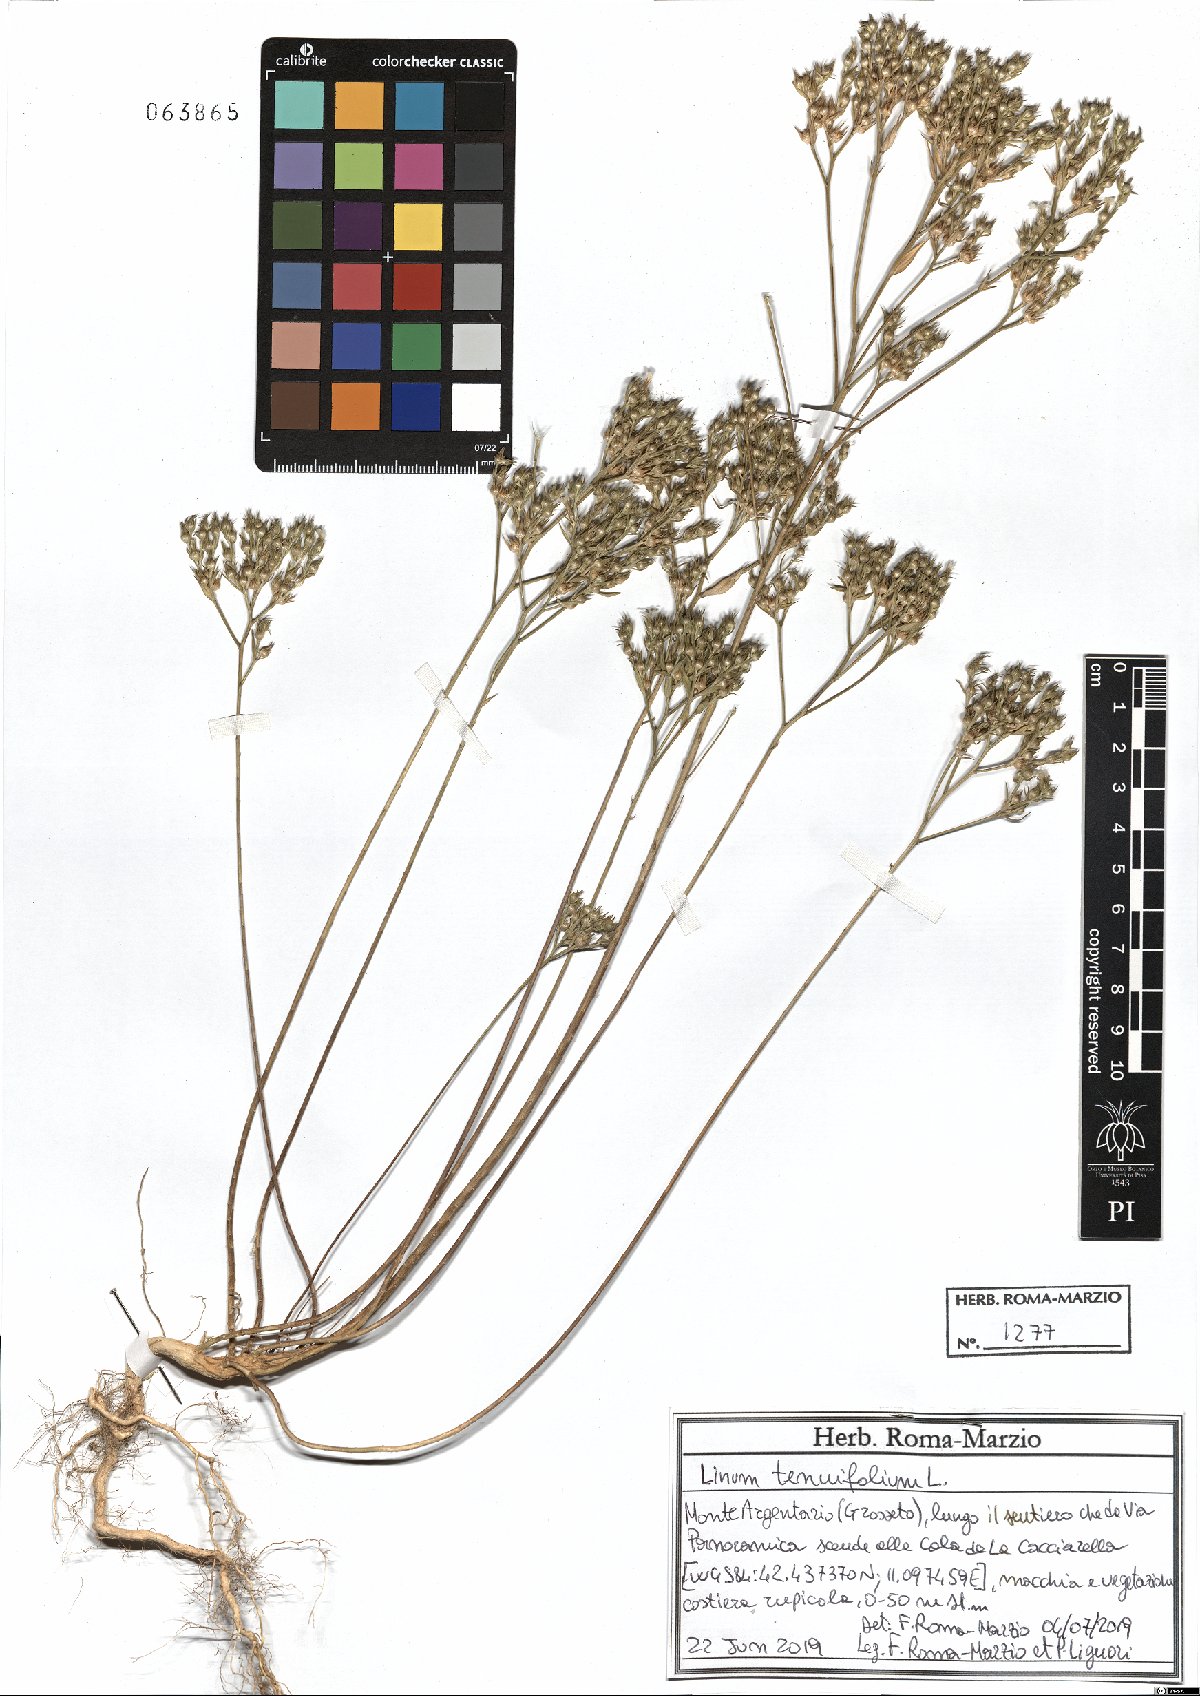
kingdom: Plantae
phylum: Tracheophyta
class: Magnoliopsida
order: Malpighiales
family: Linaceae
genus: Linum
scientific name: Linum tenuifolium
